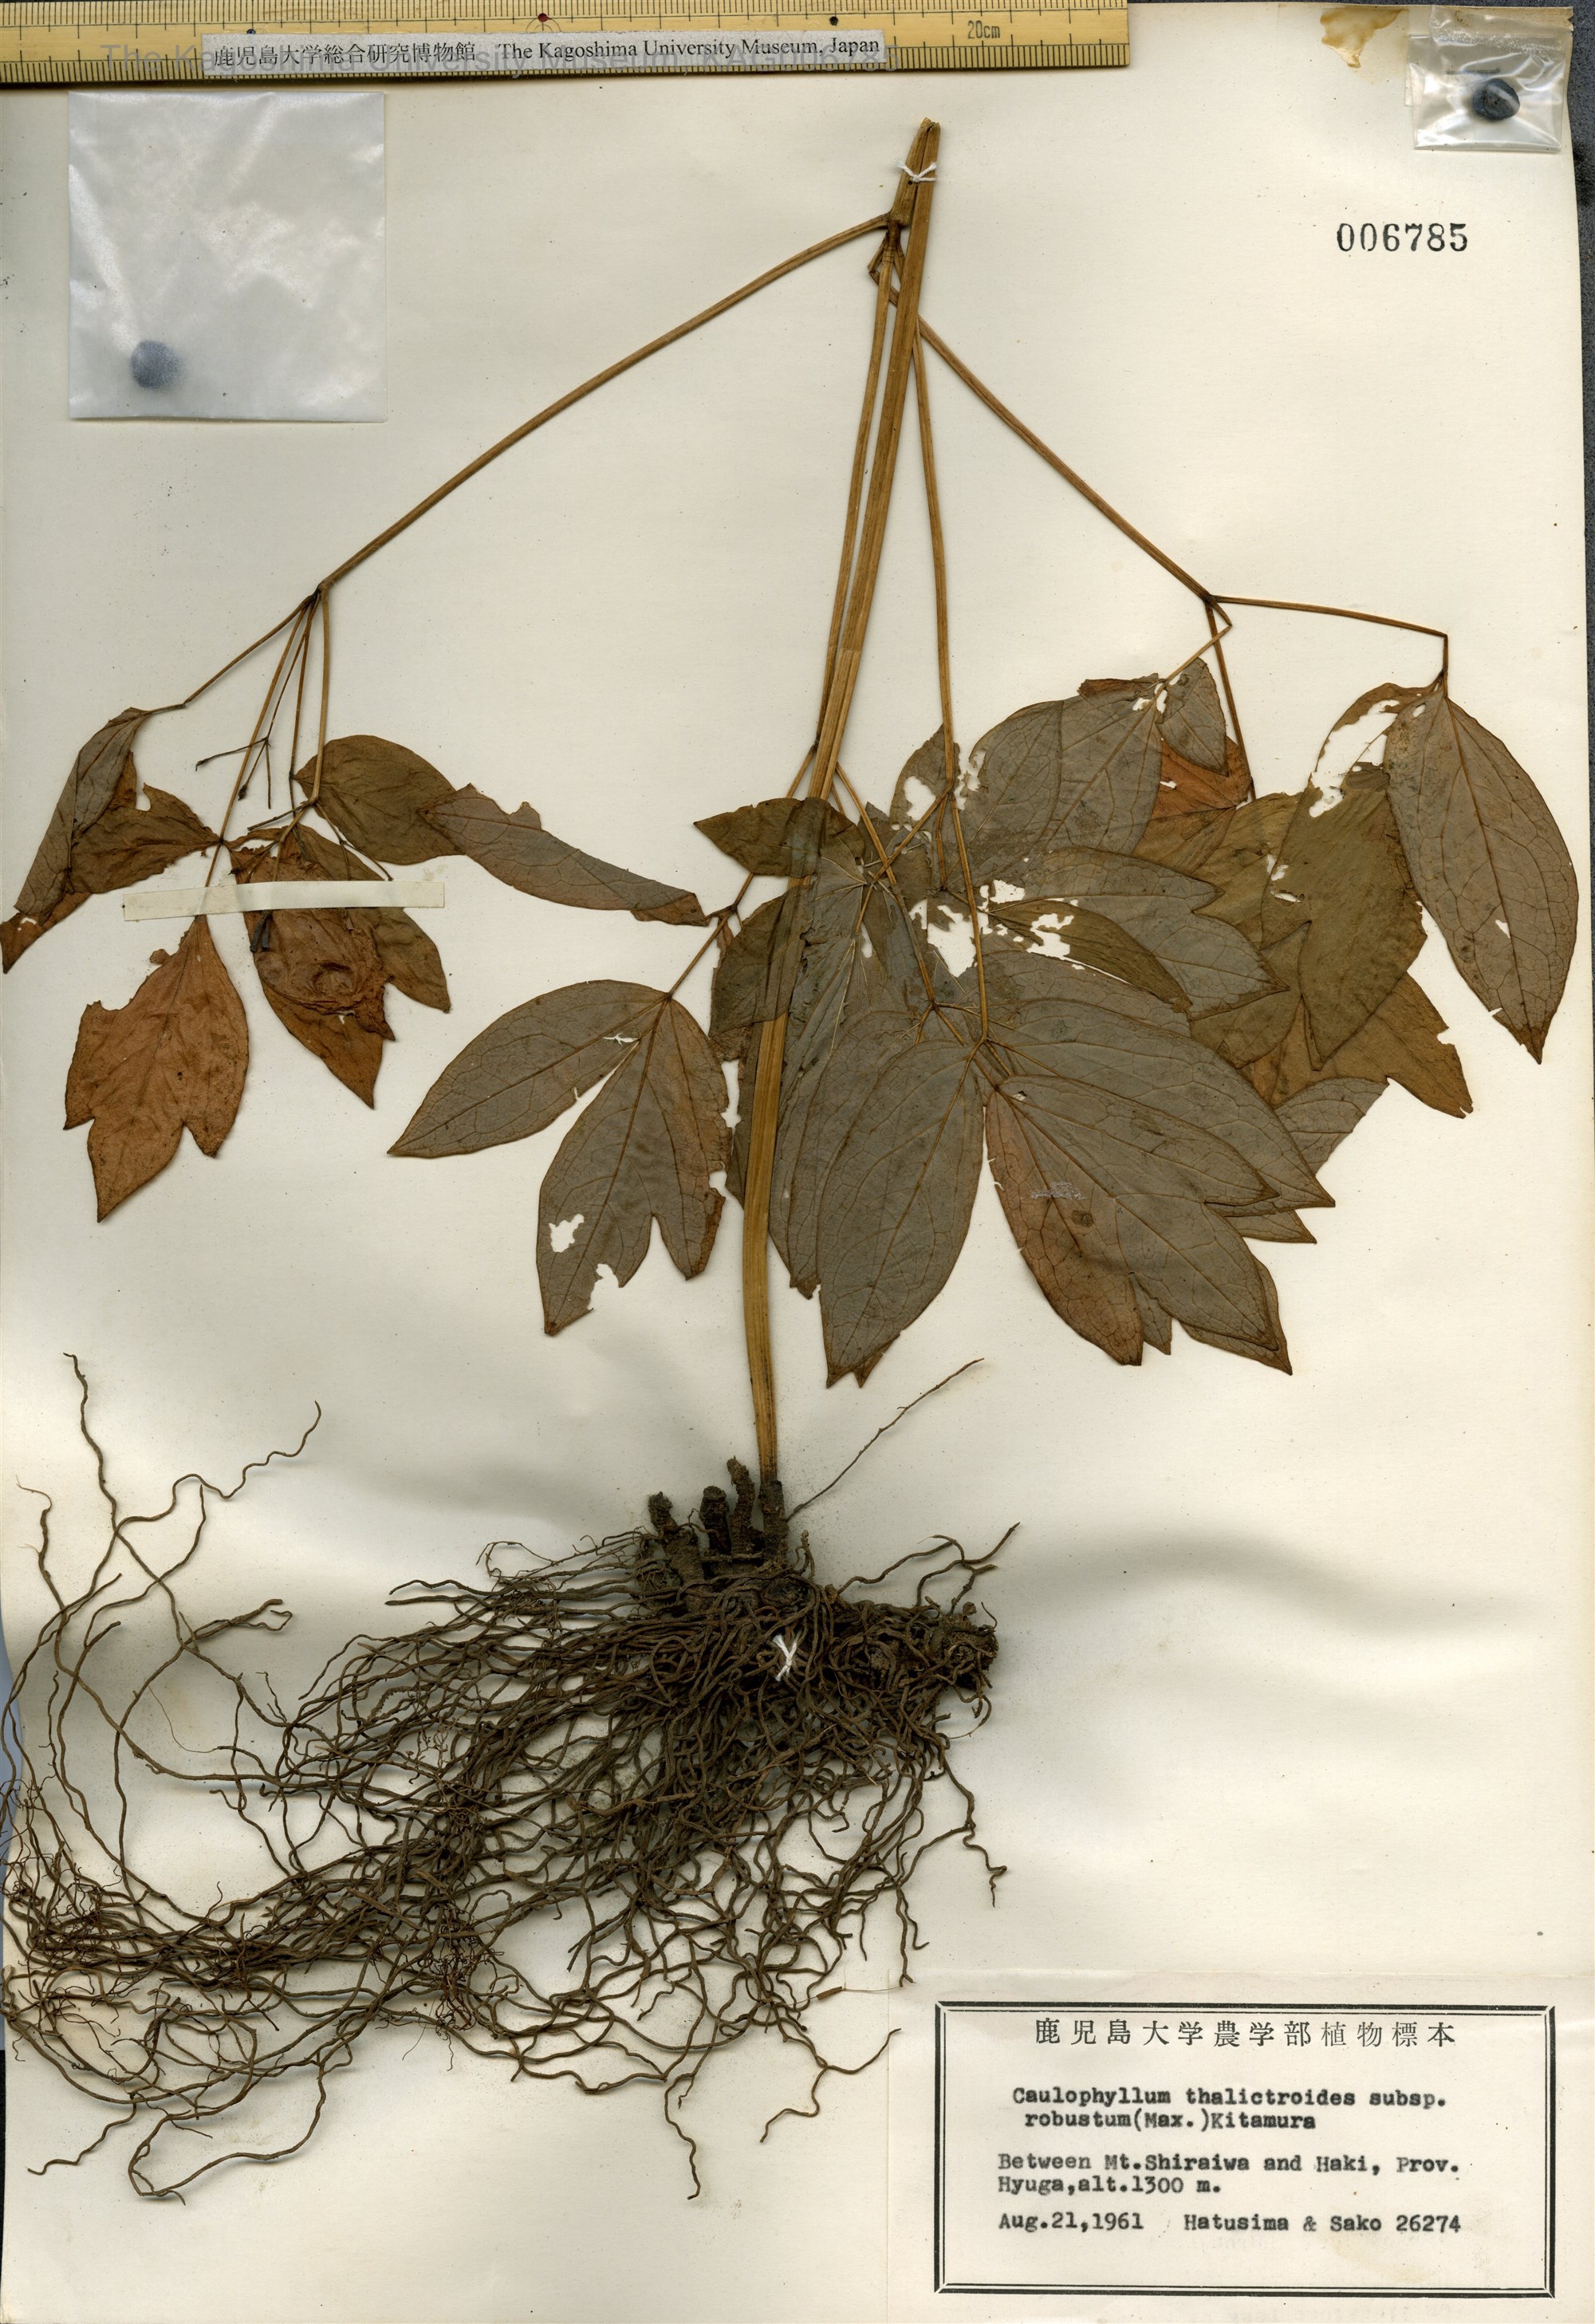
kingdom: Plantae
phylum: Tracheophyta
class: Magnoliopsida
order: Ranunculales
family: Berberidaceae
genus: Caulophyllum
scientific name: Caulophyllum robustum
